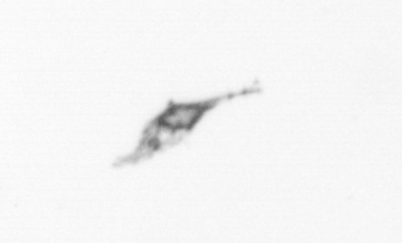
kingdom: Animalia
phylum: Arthropoda
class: Copepoda
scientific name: Copepoda
